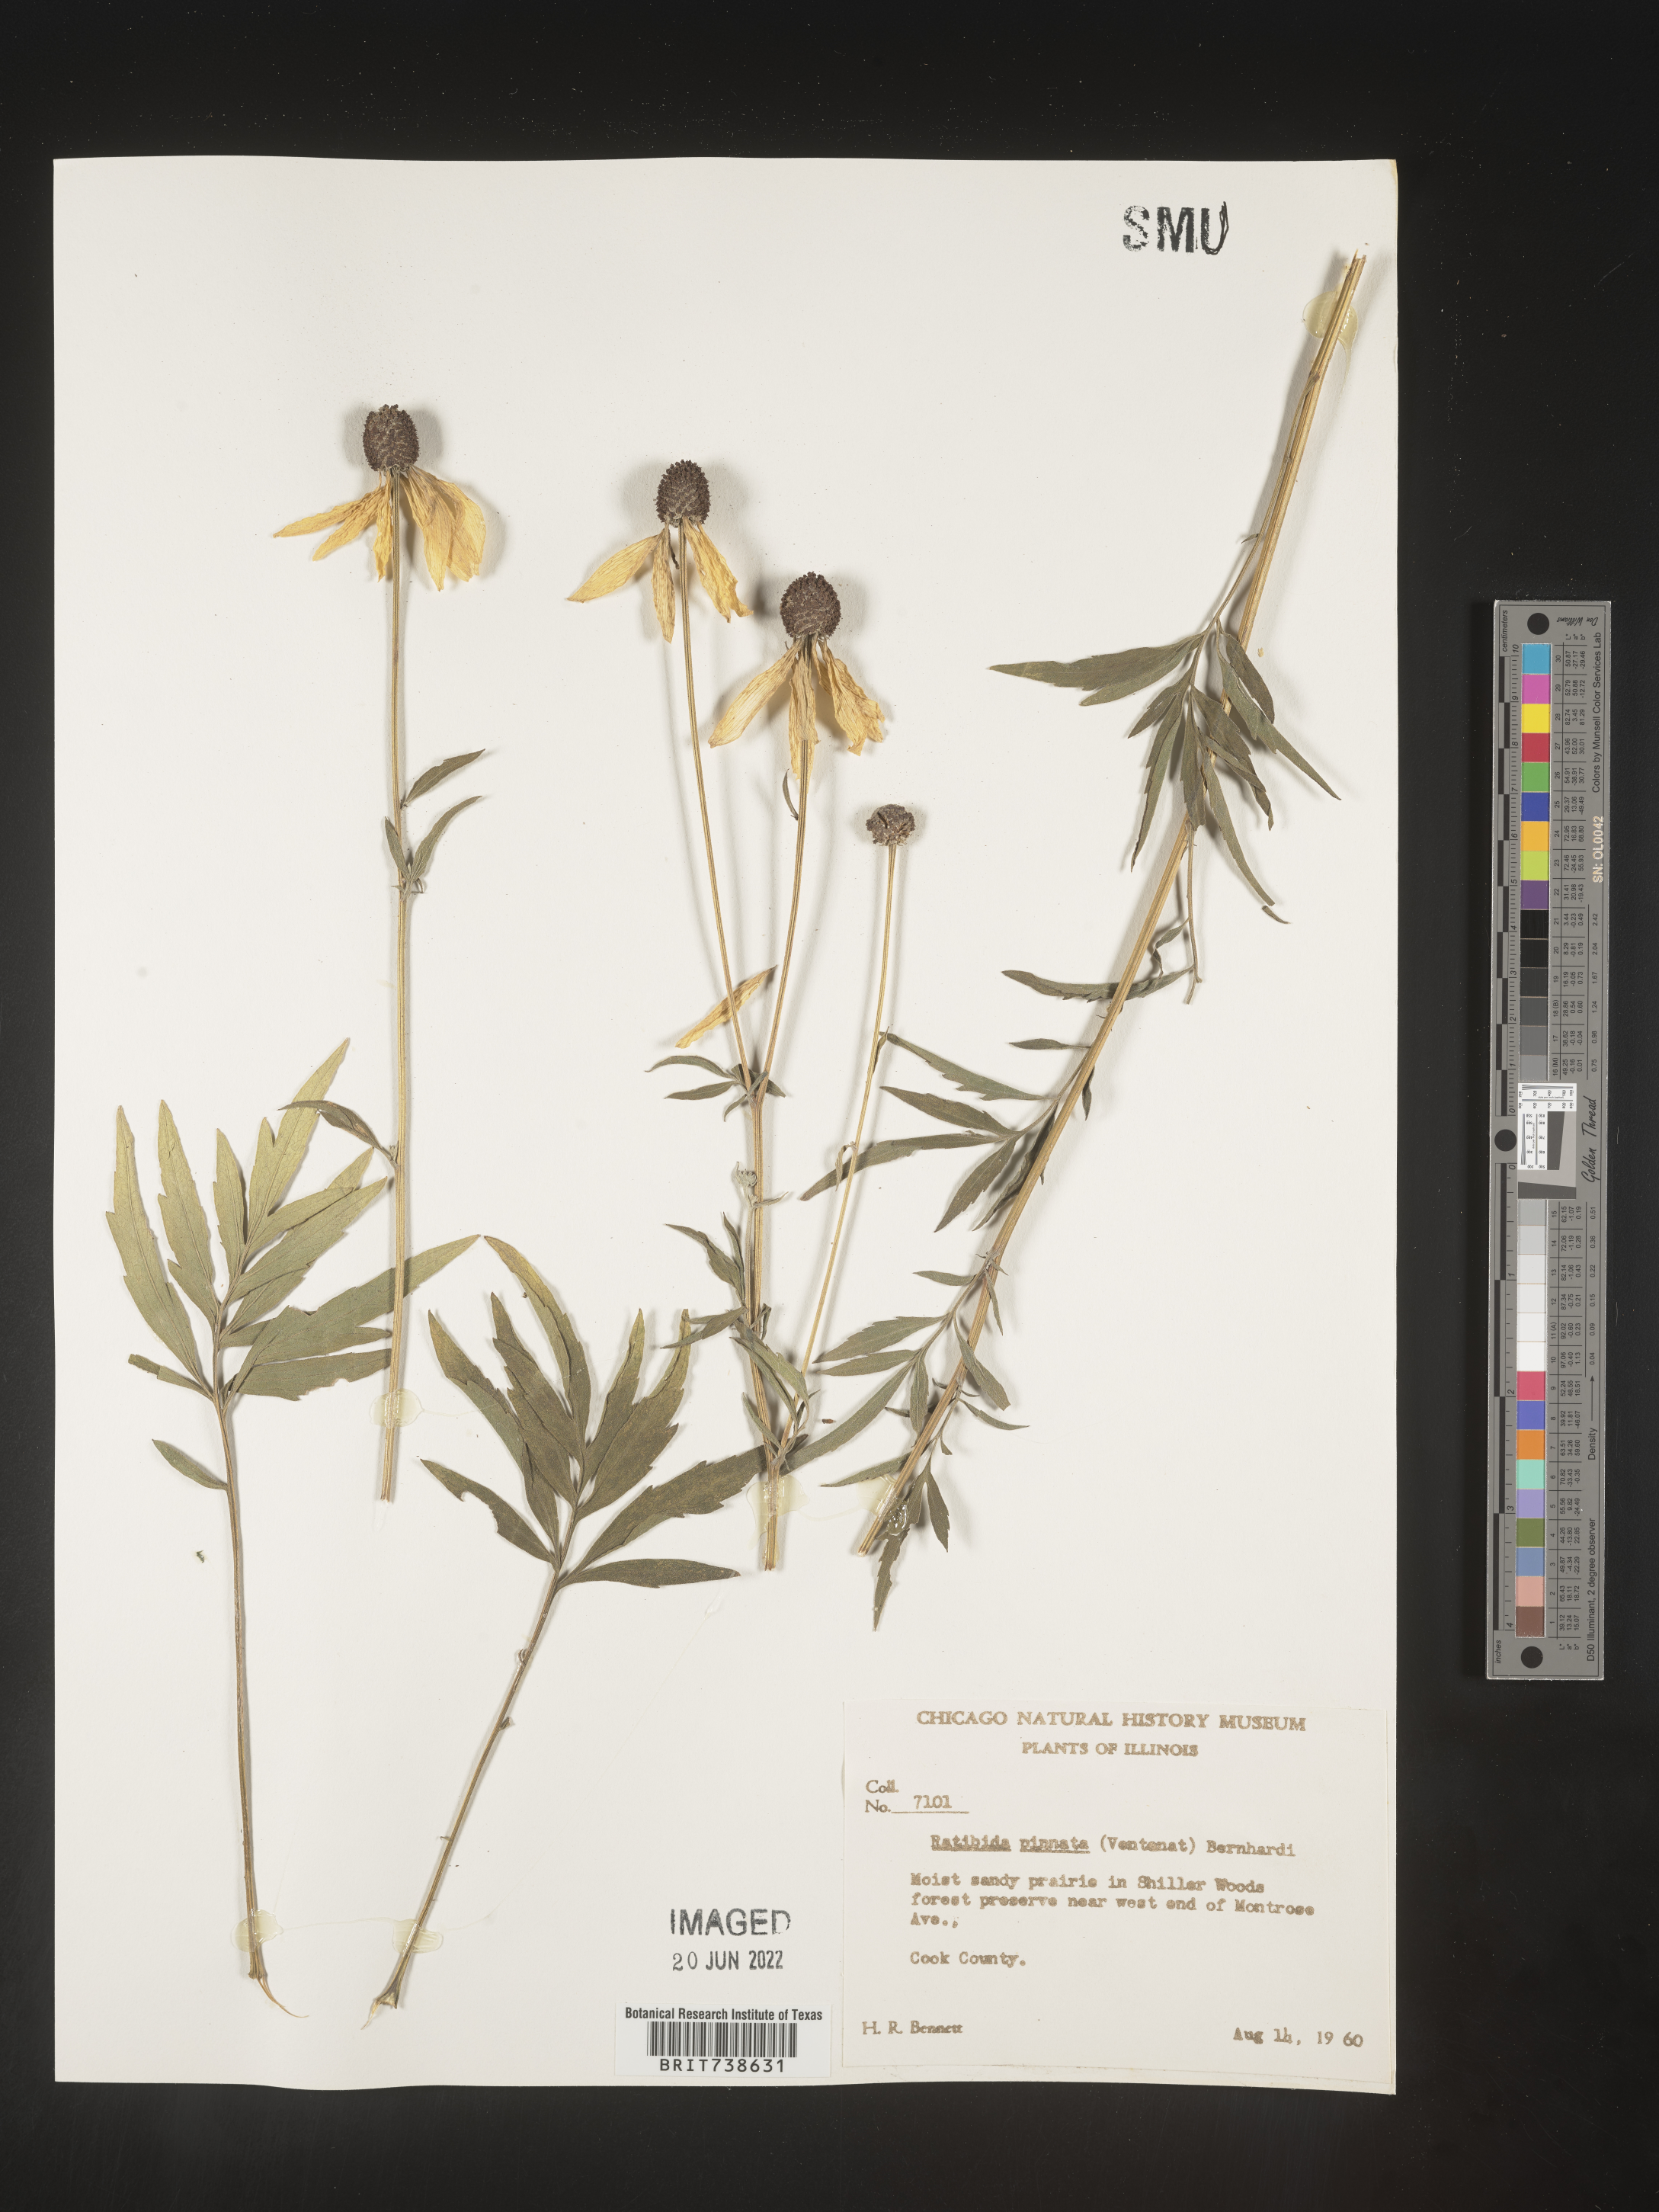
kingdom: Plantae
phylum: Tracheophyta
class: Magnoliopsida
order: Asterales
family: Asteraceae
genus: Ratibida
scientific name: Ratibida pinnata
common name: Drooping prairie-coneflower
